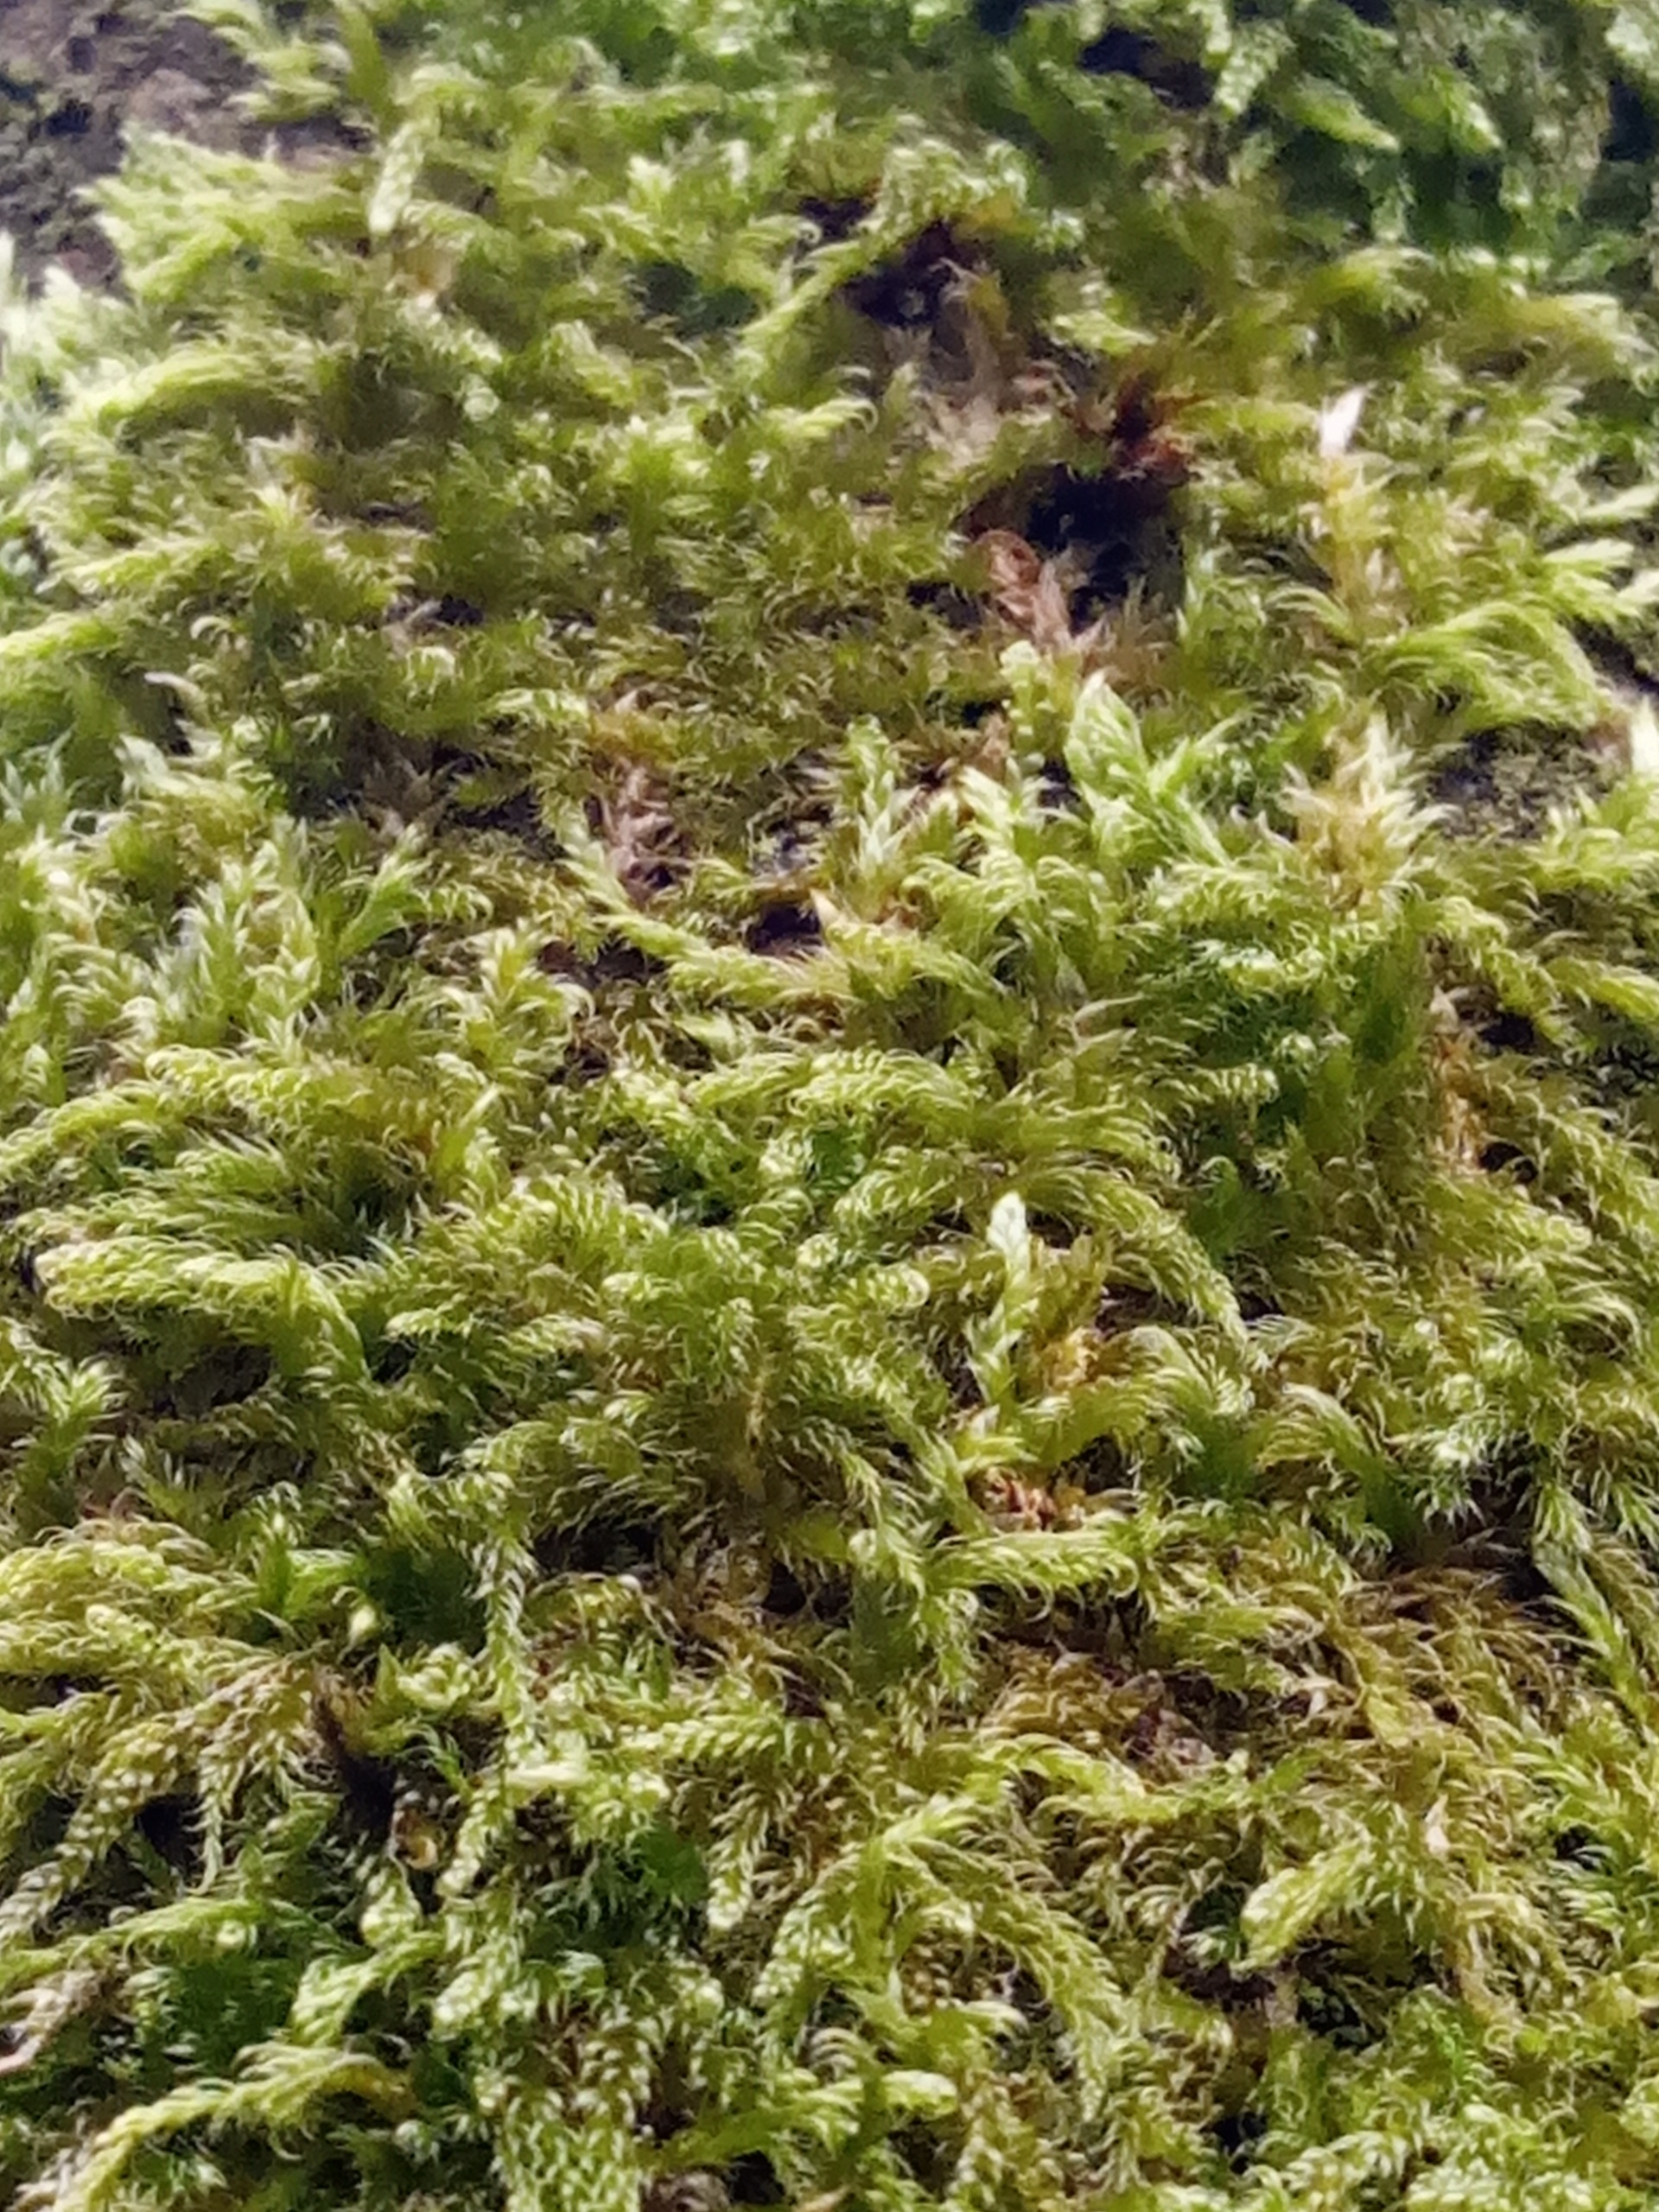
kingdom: Plantae
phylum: Bryophyta
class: Bryopsida
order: Hypnales
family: Hypnaceae
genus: Hypnum
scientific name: Hypnum cupressiforme
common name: Almindelig cypresmos
